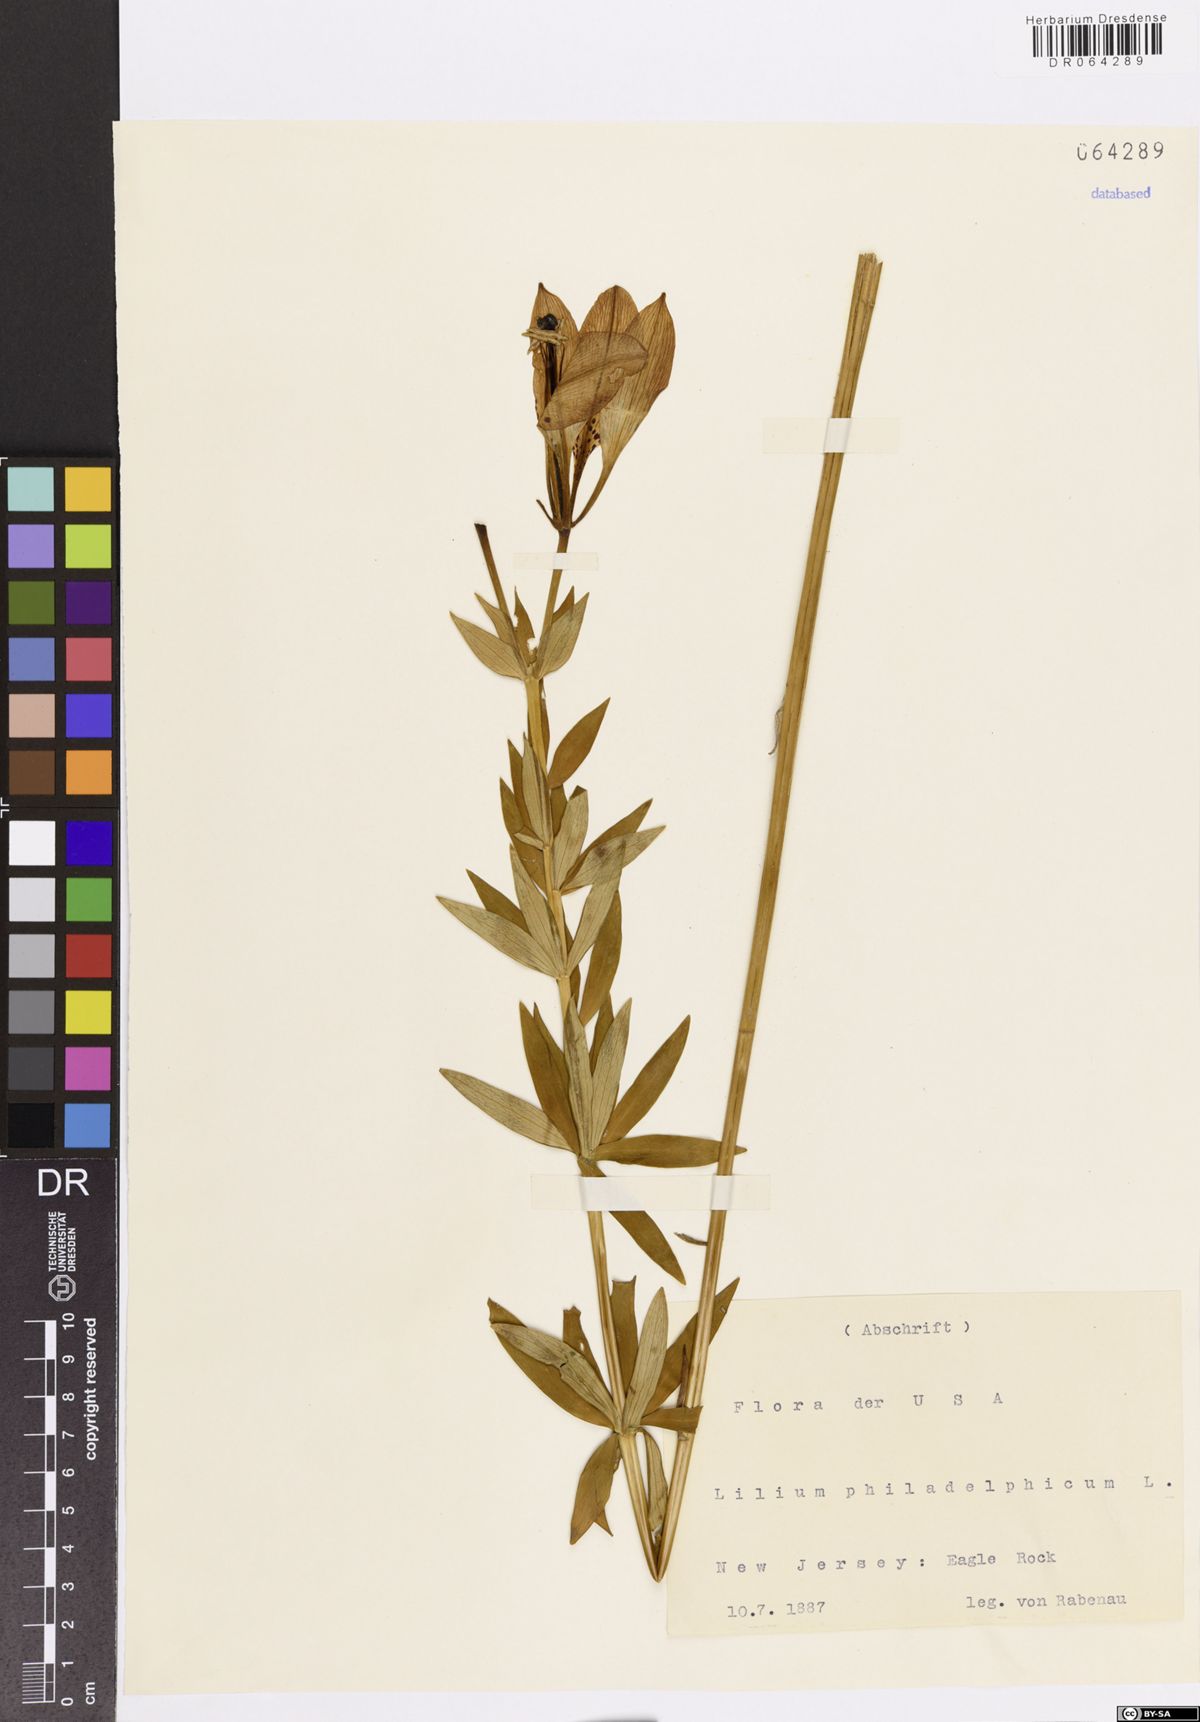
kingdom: Plantae
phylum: Tracheophyta
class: Liliopsida
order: Liliales
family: Liliaceae
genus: Lilium
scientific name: Lilium philadelphicum
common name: Red lily
